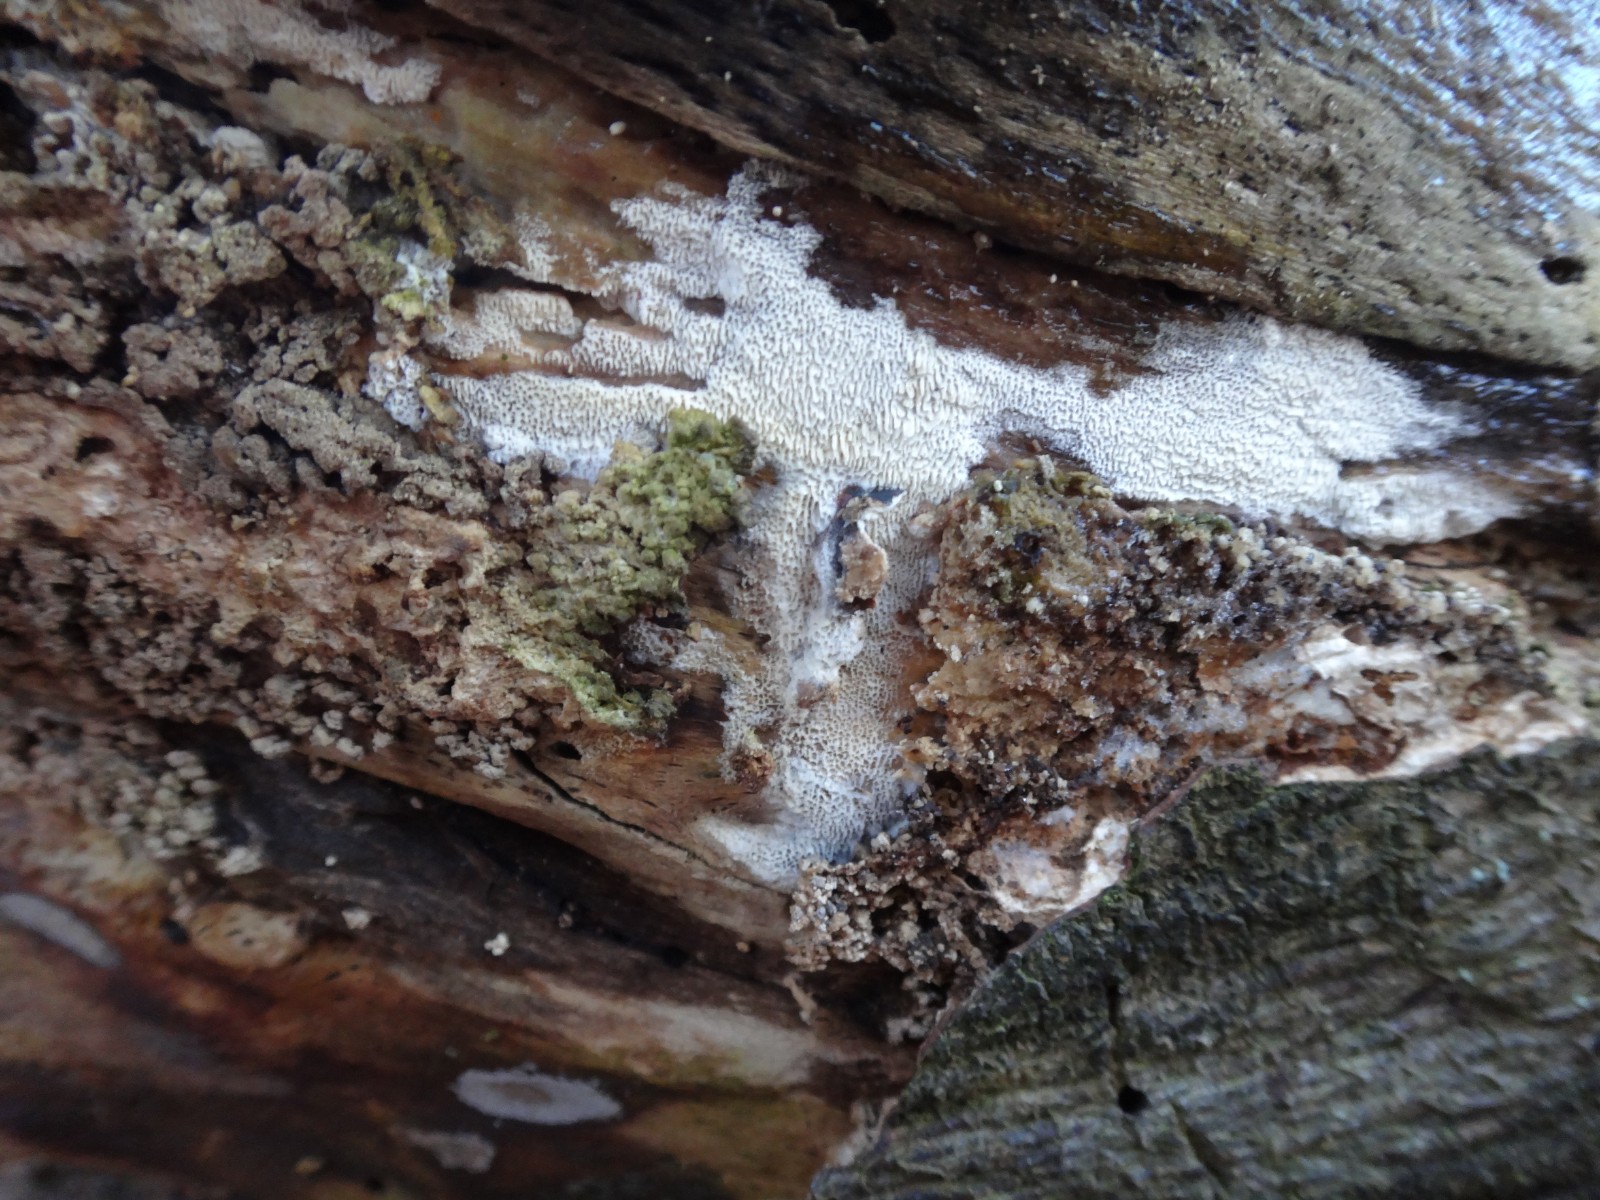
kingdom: Fungi
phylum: Basidiomycota
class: Agaricomycetes
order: Hymenochaetales
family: Schizoporaceae
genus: Xylodon
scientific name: Xylodon subtropicus
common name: labyrint-tandsvamp
